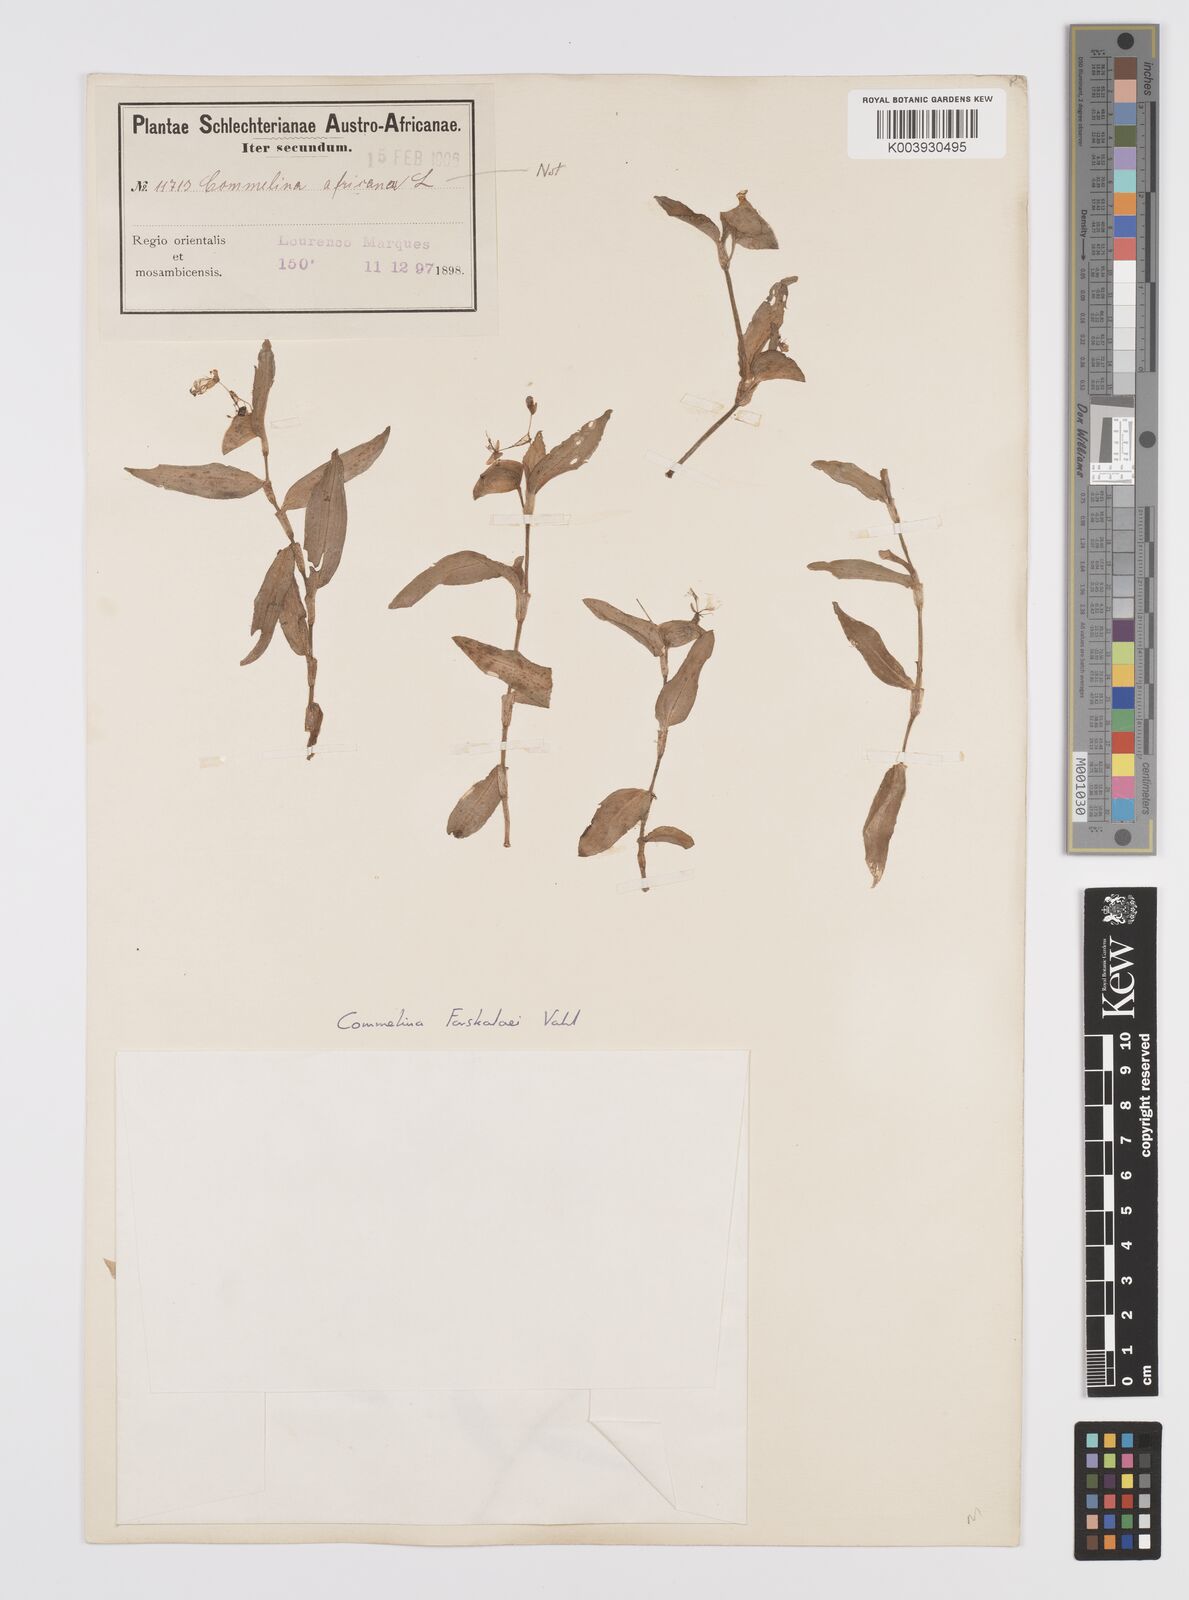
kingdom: Plantae
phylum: Tracheophyta
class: Liliopsida
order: Commelinales
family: Commelinaceae
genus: Commelina
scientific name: Commelina forskaolii
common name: Rat's ear
